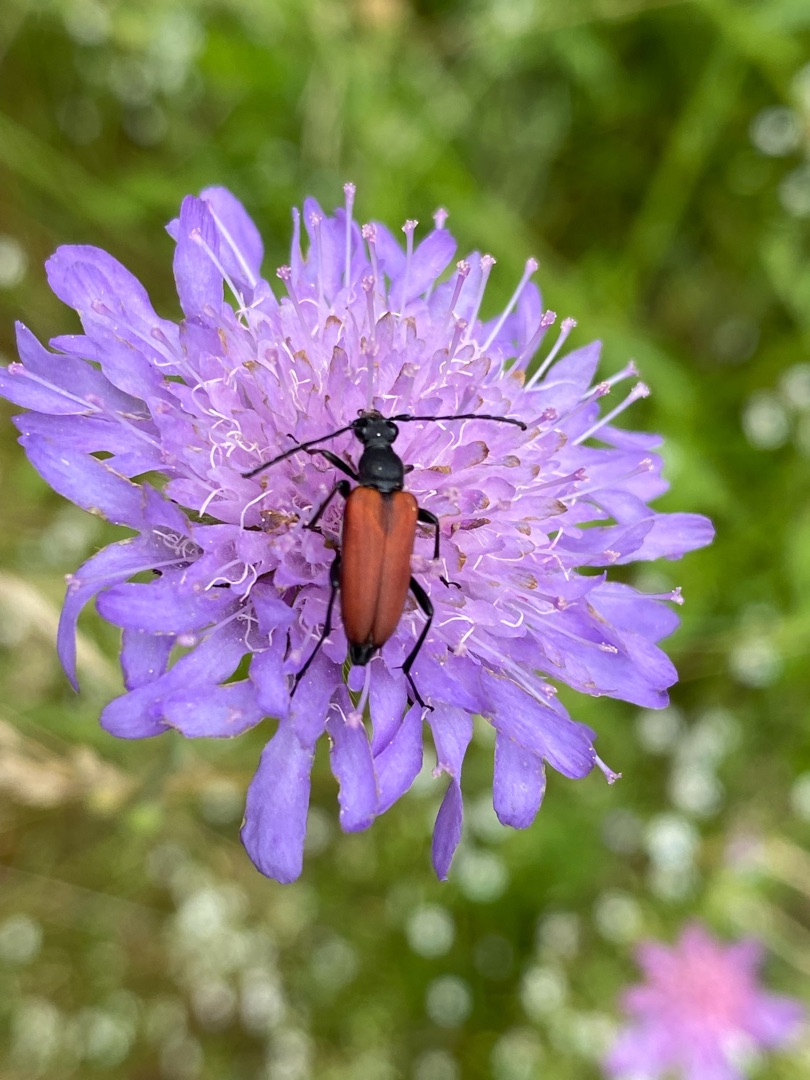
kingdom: Animalia
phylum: Arthropoda
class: Insecta
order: Coleoptera
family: Cerambycidae
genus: Anastrangalia
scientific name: Anastrangalia sanguinolenta
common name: Blodrød blomsterbuk
